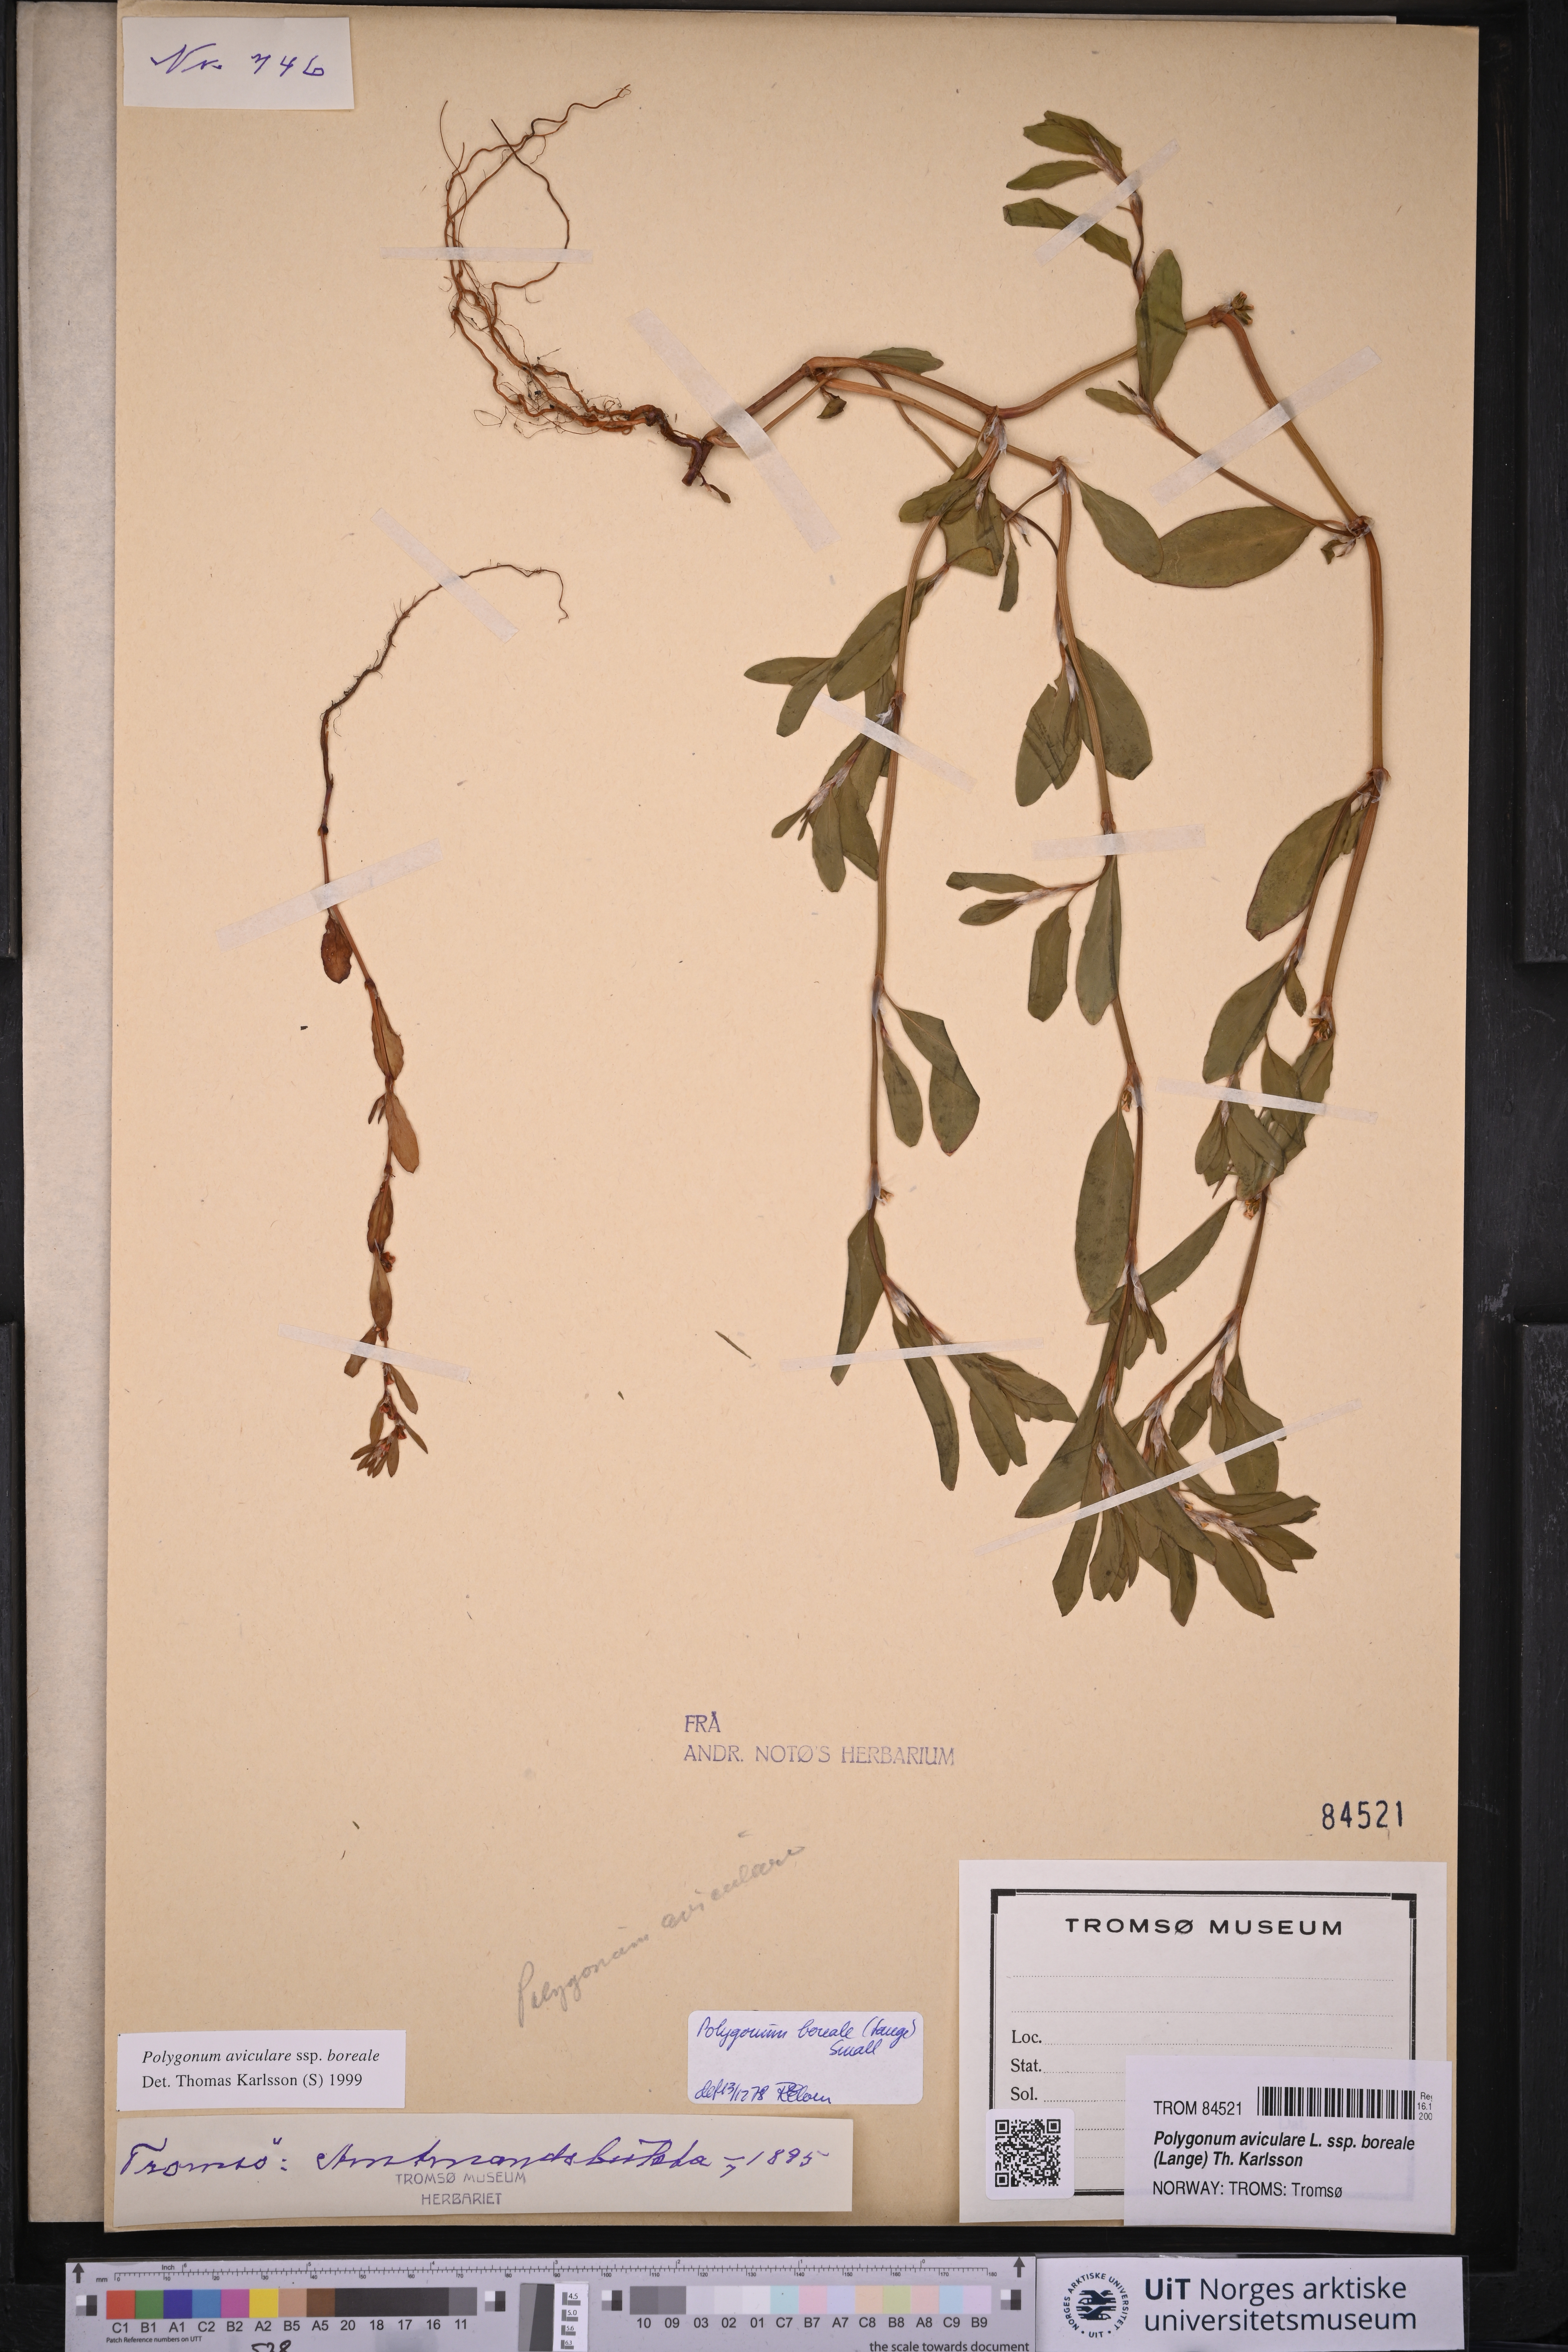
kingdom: Plantae
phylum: Tracheophyta
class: Magnoliopsida
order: Caryophyllales
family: Polygonaceae
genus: Polygonum
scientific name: Polygonum boreale
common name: Northern knotgrass
